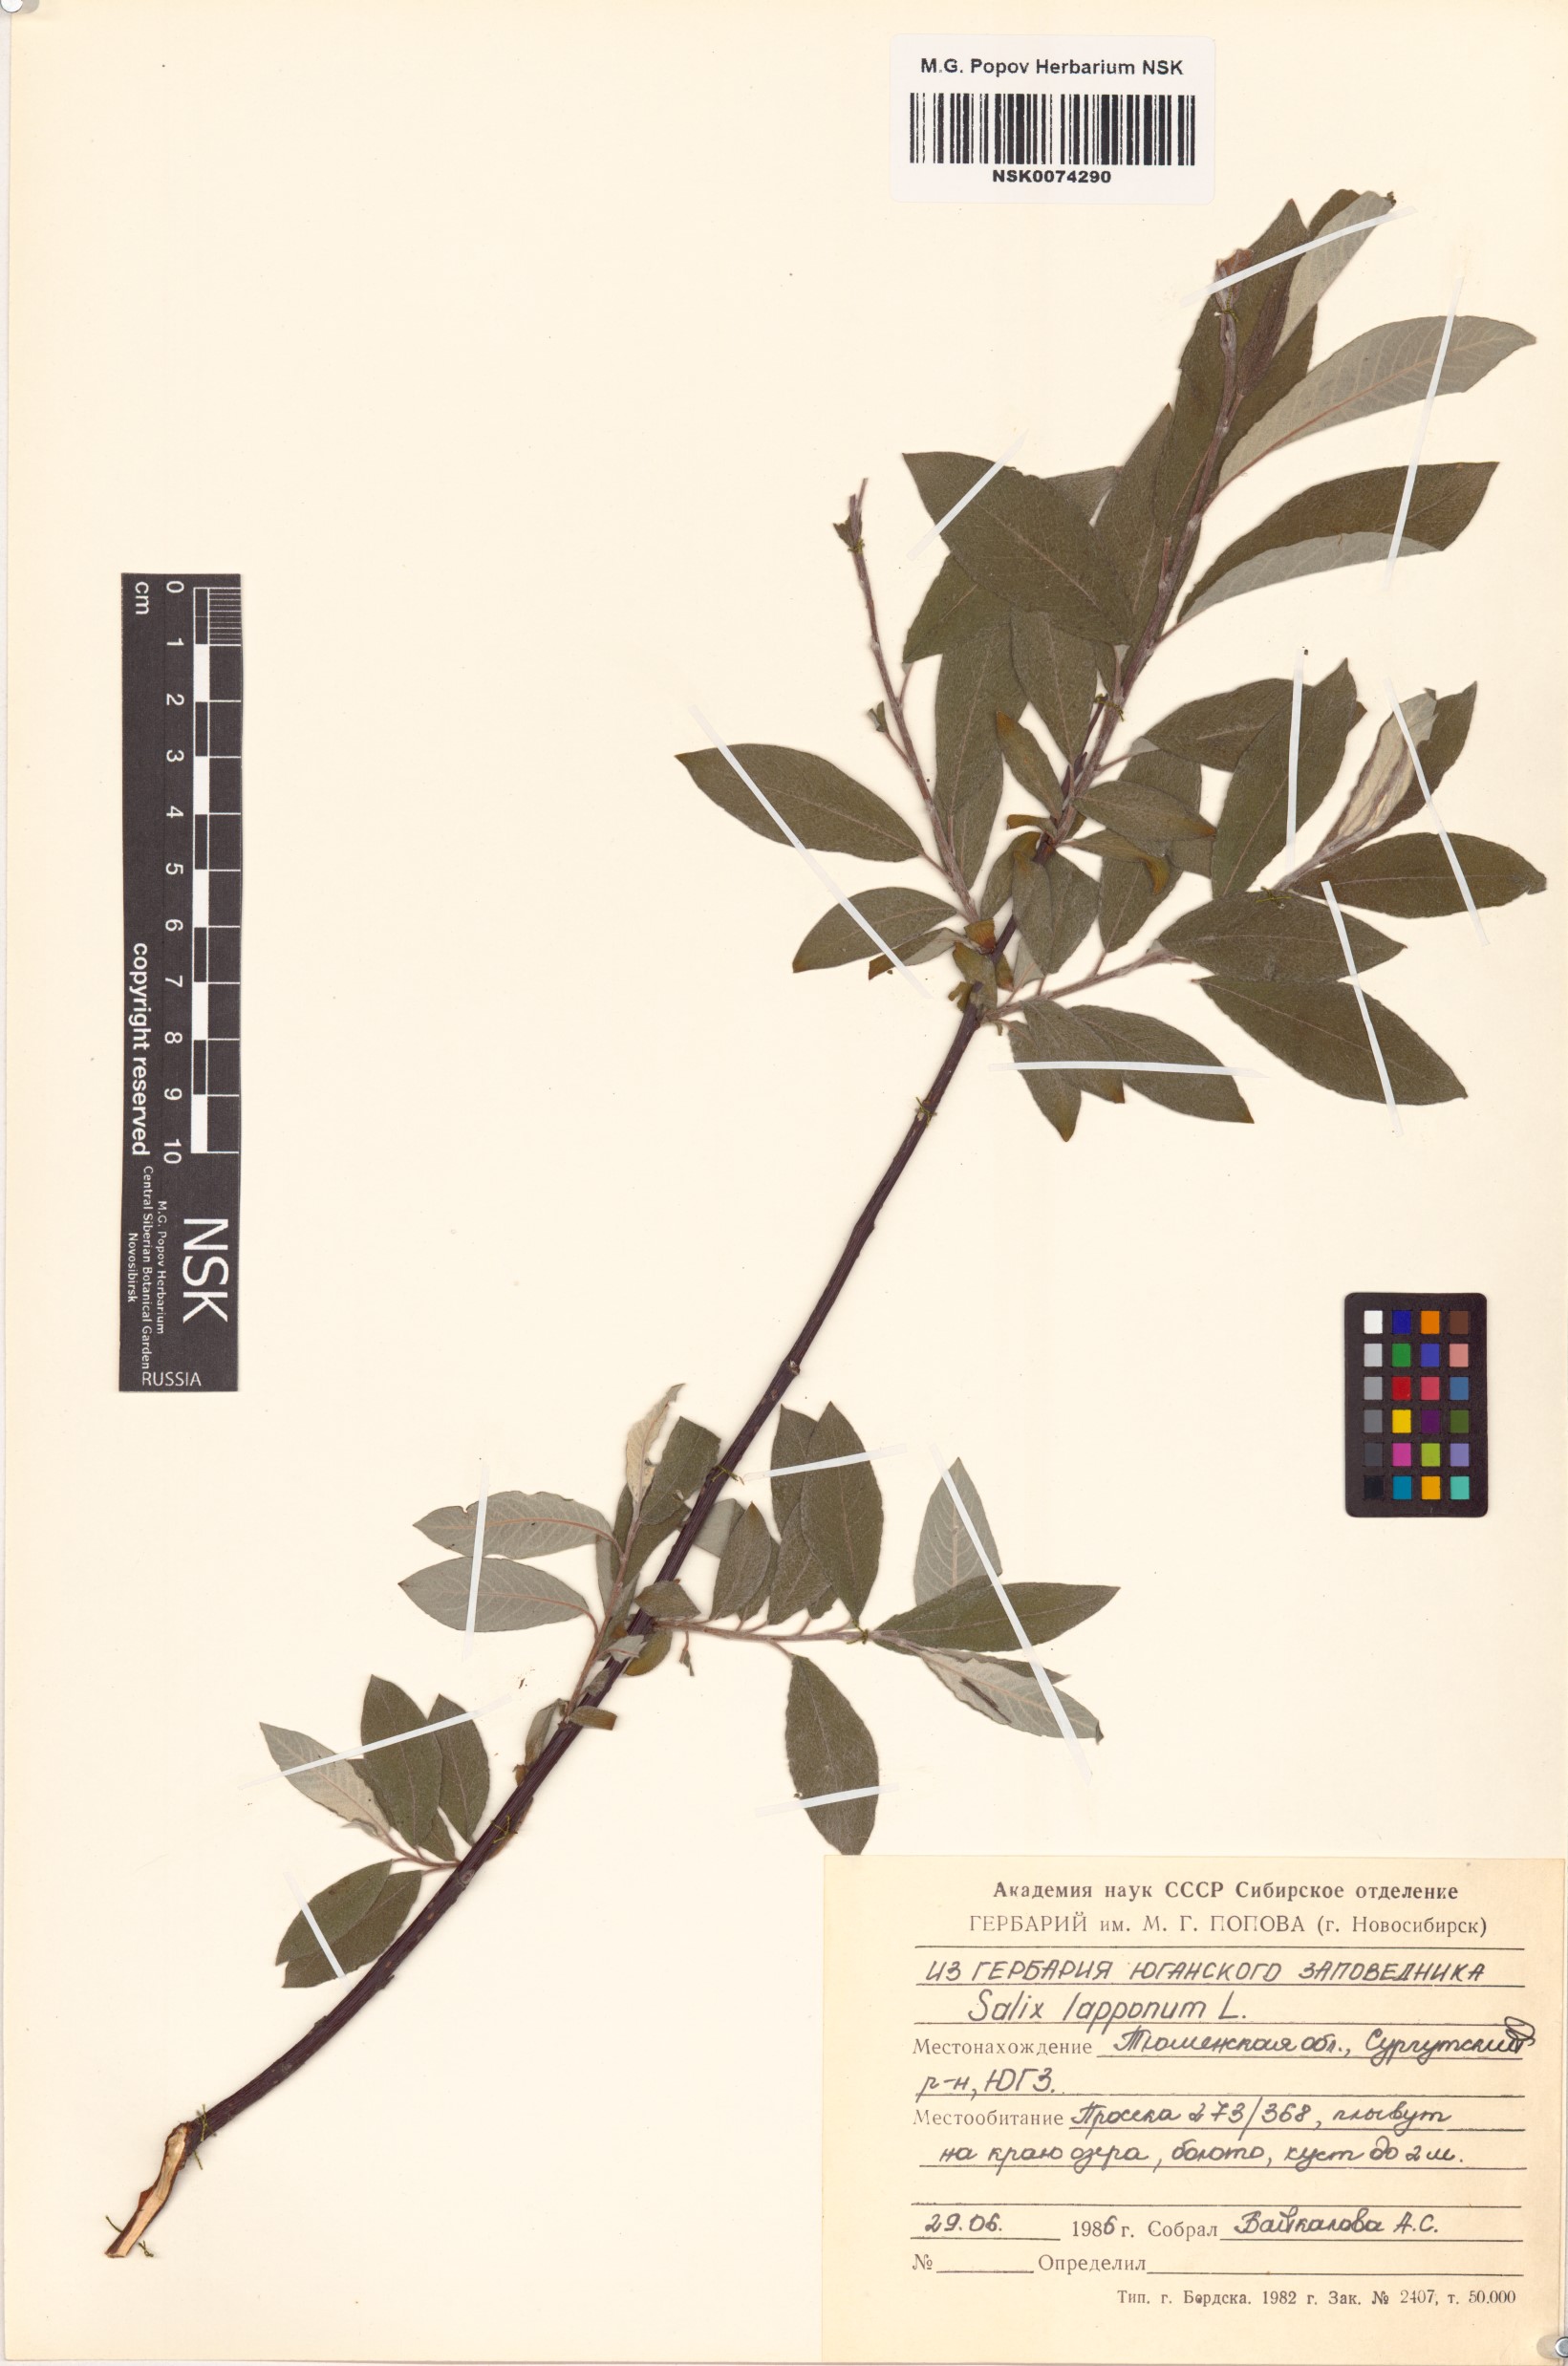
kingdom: Plantae
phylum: Tracheophyta
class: Magnoliopsida
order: Malpighiales
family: Salicaceae
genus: Salix
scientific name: Salix lapponum
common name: Downy willow
